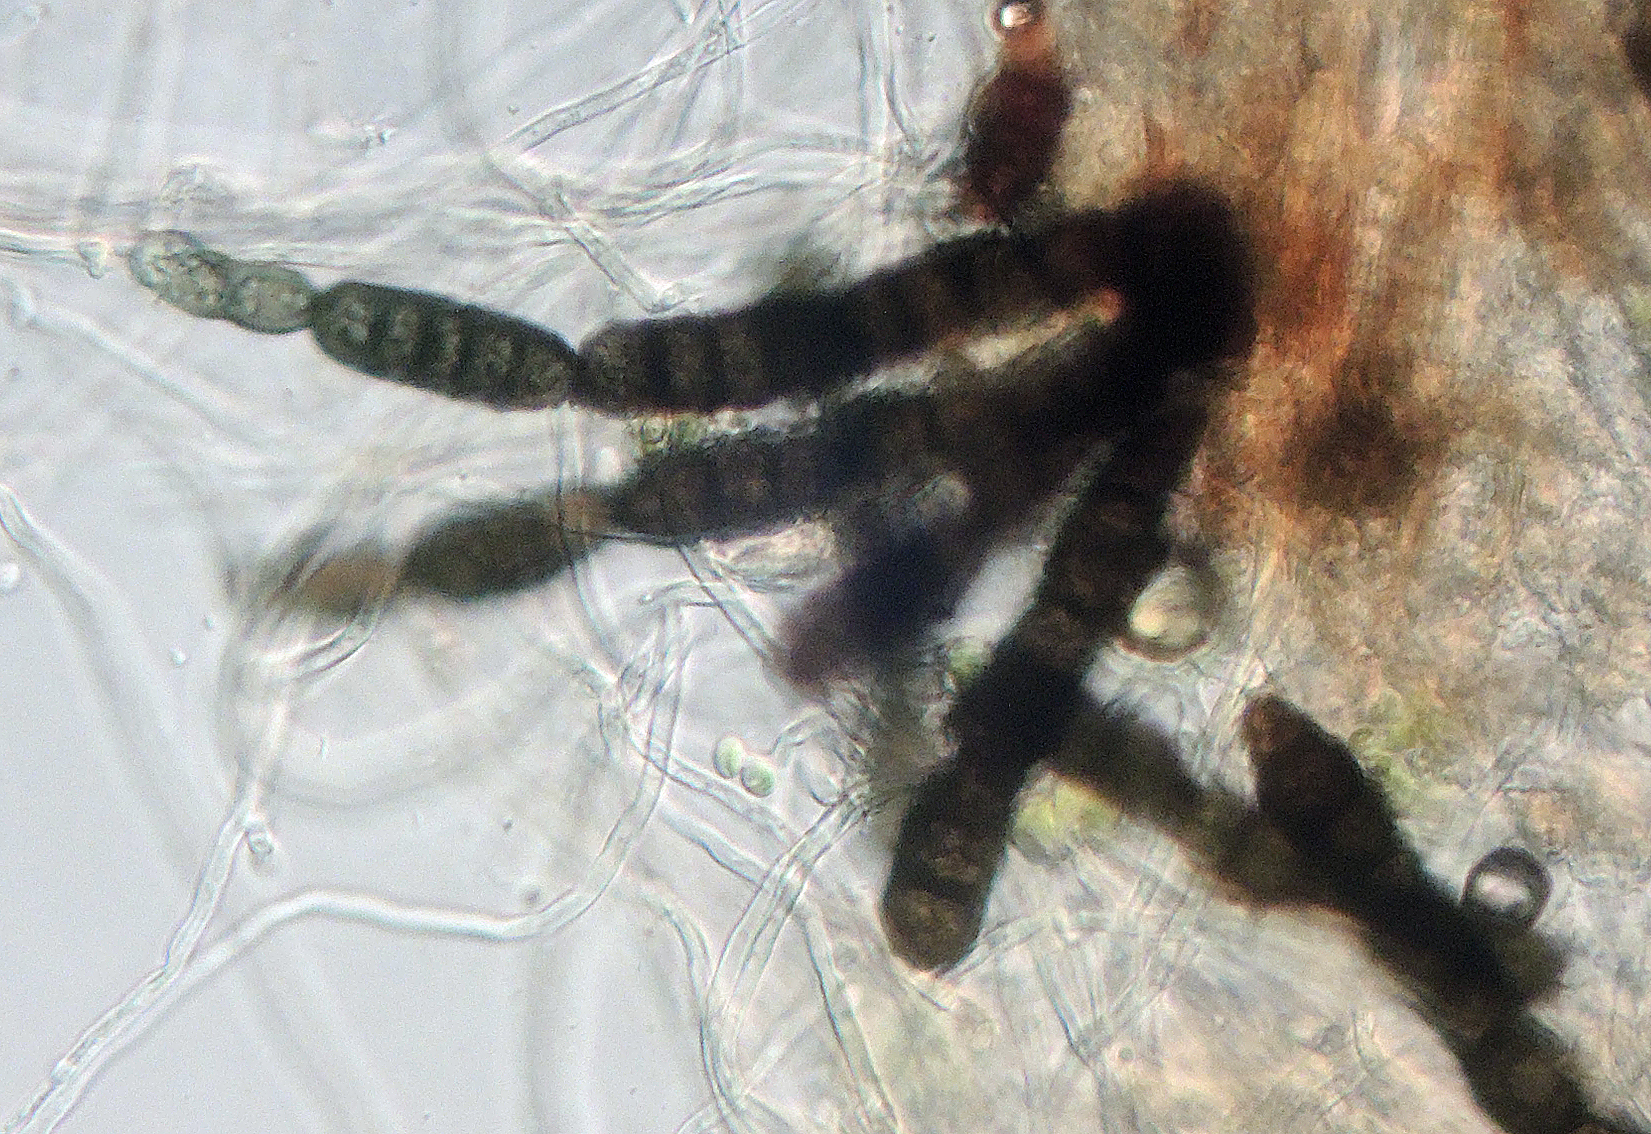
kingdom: Fungi
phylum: Ascomycota
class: Dothideomycetes
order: Mytilinidiales
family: Mytilinidiaceae
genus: Taeniolella
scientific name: Taeniolella
